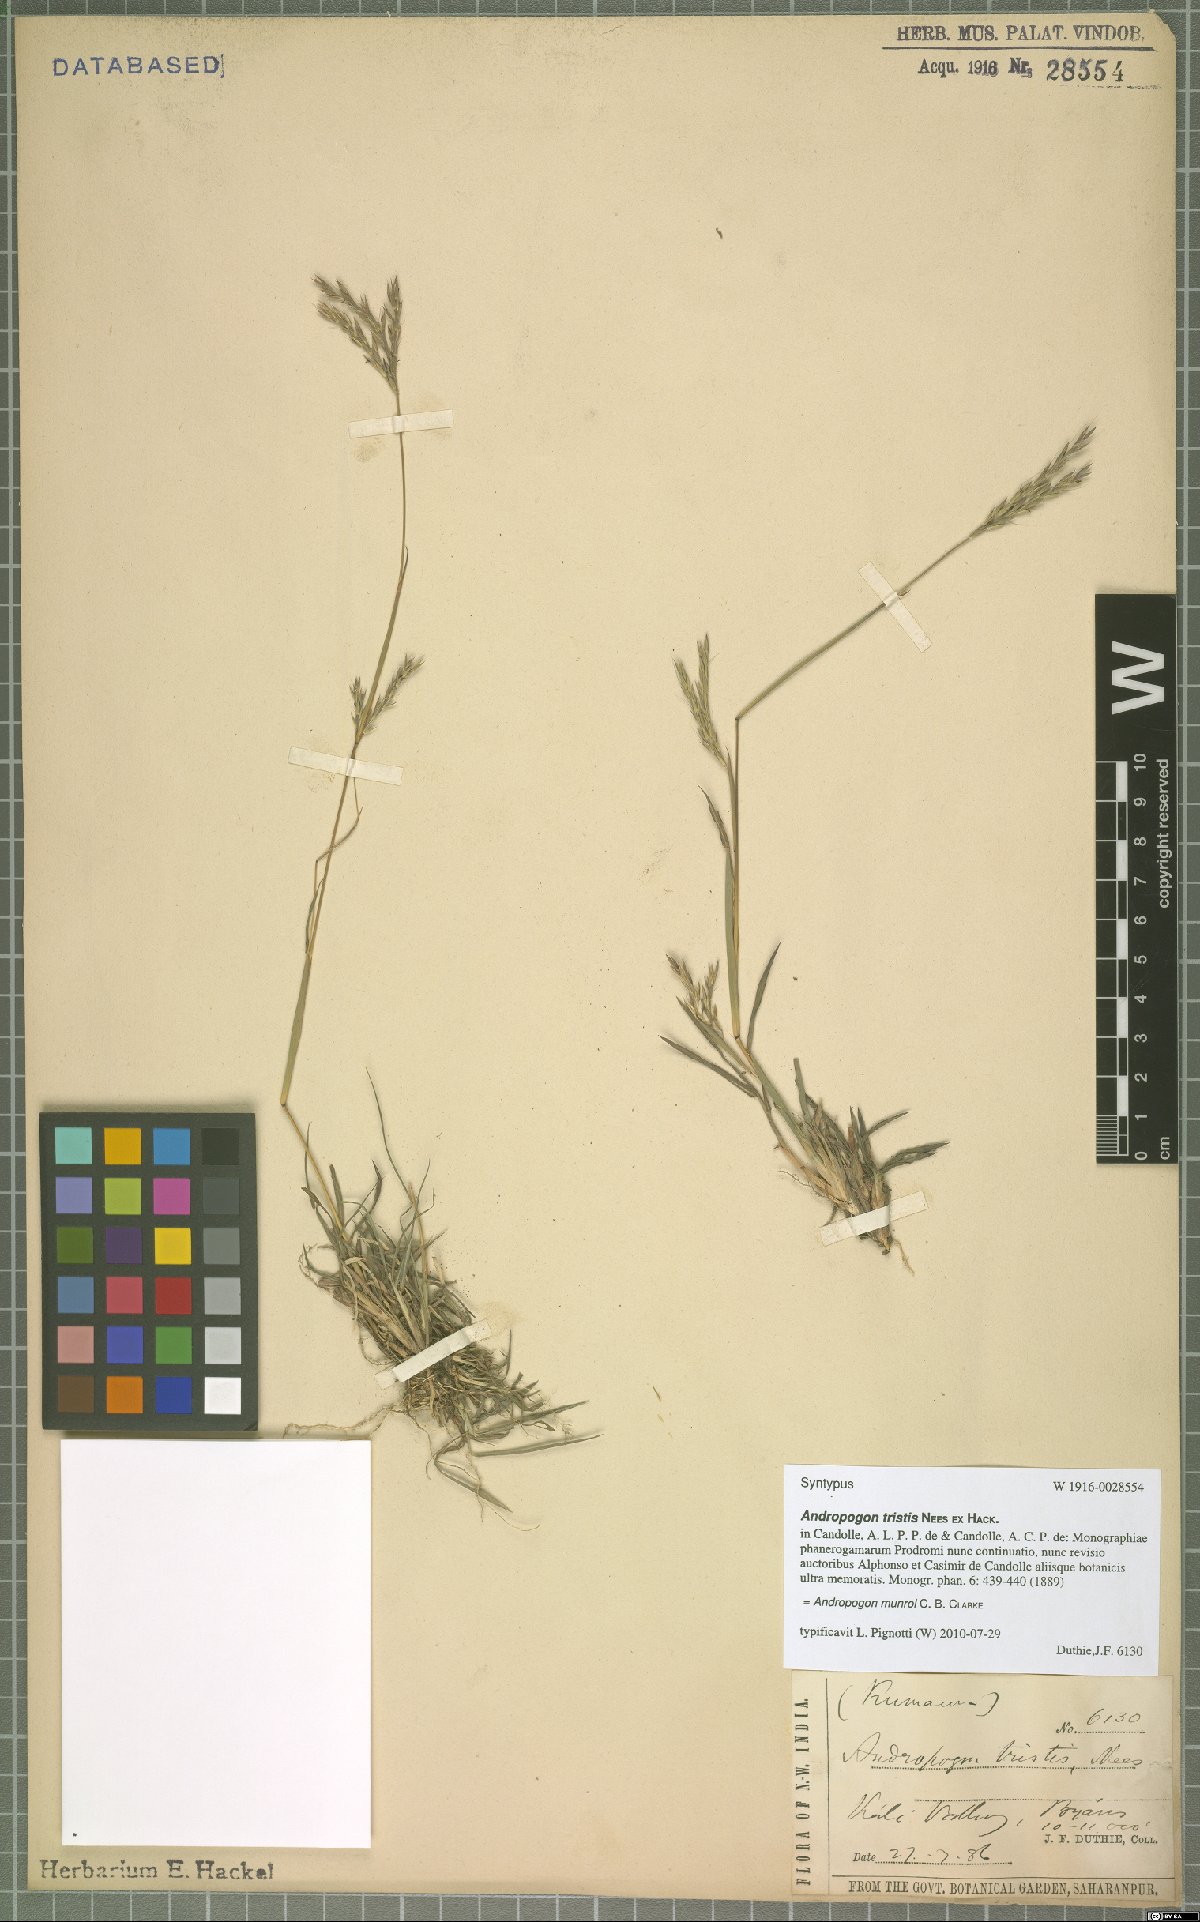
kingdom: Plantae
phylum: Tracheophyta
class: Liliopsida
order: Poales
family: Poaceae
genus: Andropogon
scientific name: Andropogon munroi
